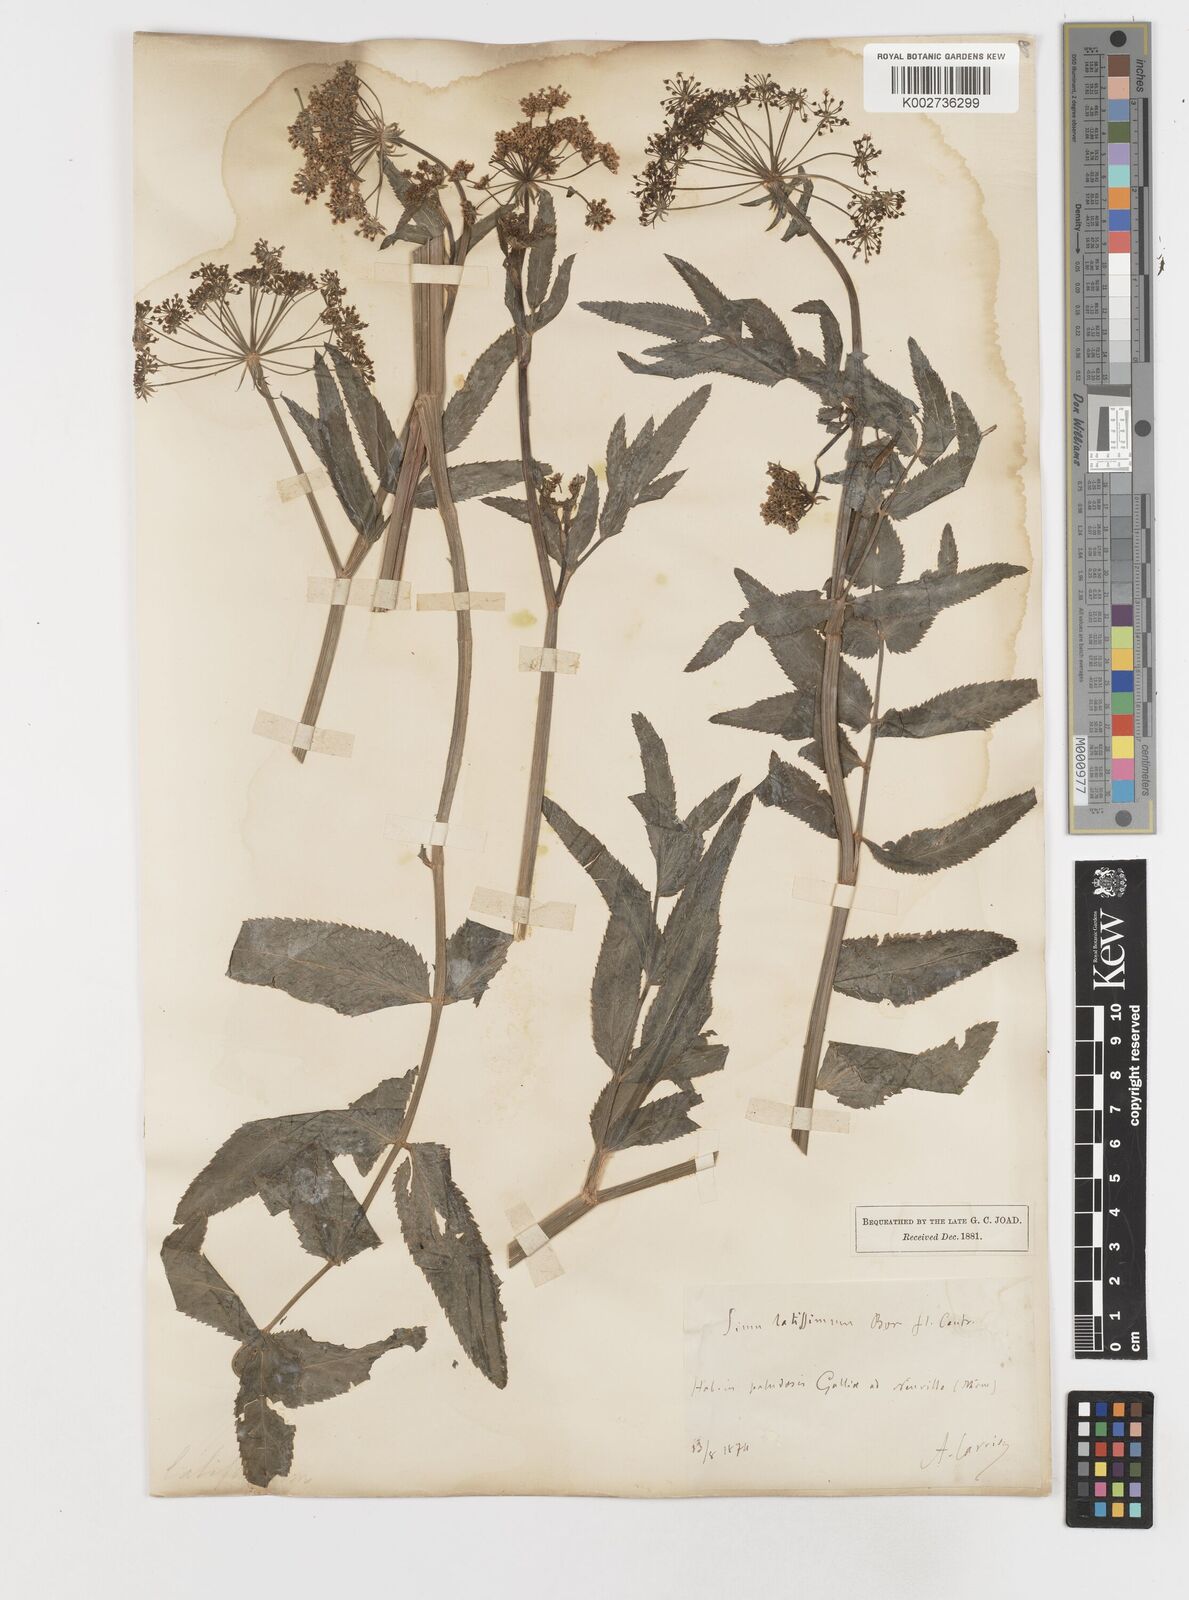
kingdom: Plantae
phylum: Tracheophyta
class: Magnoliopsida
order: Apiales
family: Apiaceae
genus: Sium
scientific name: Sium latifolium
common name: Greater water-parsnip
